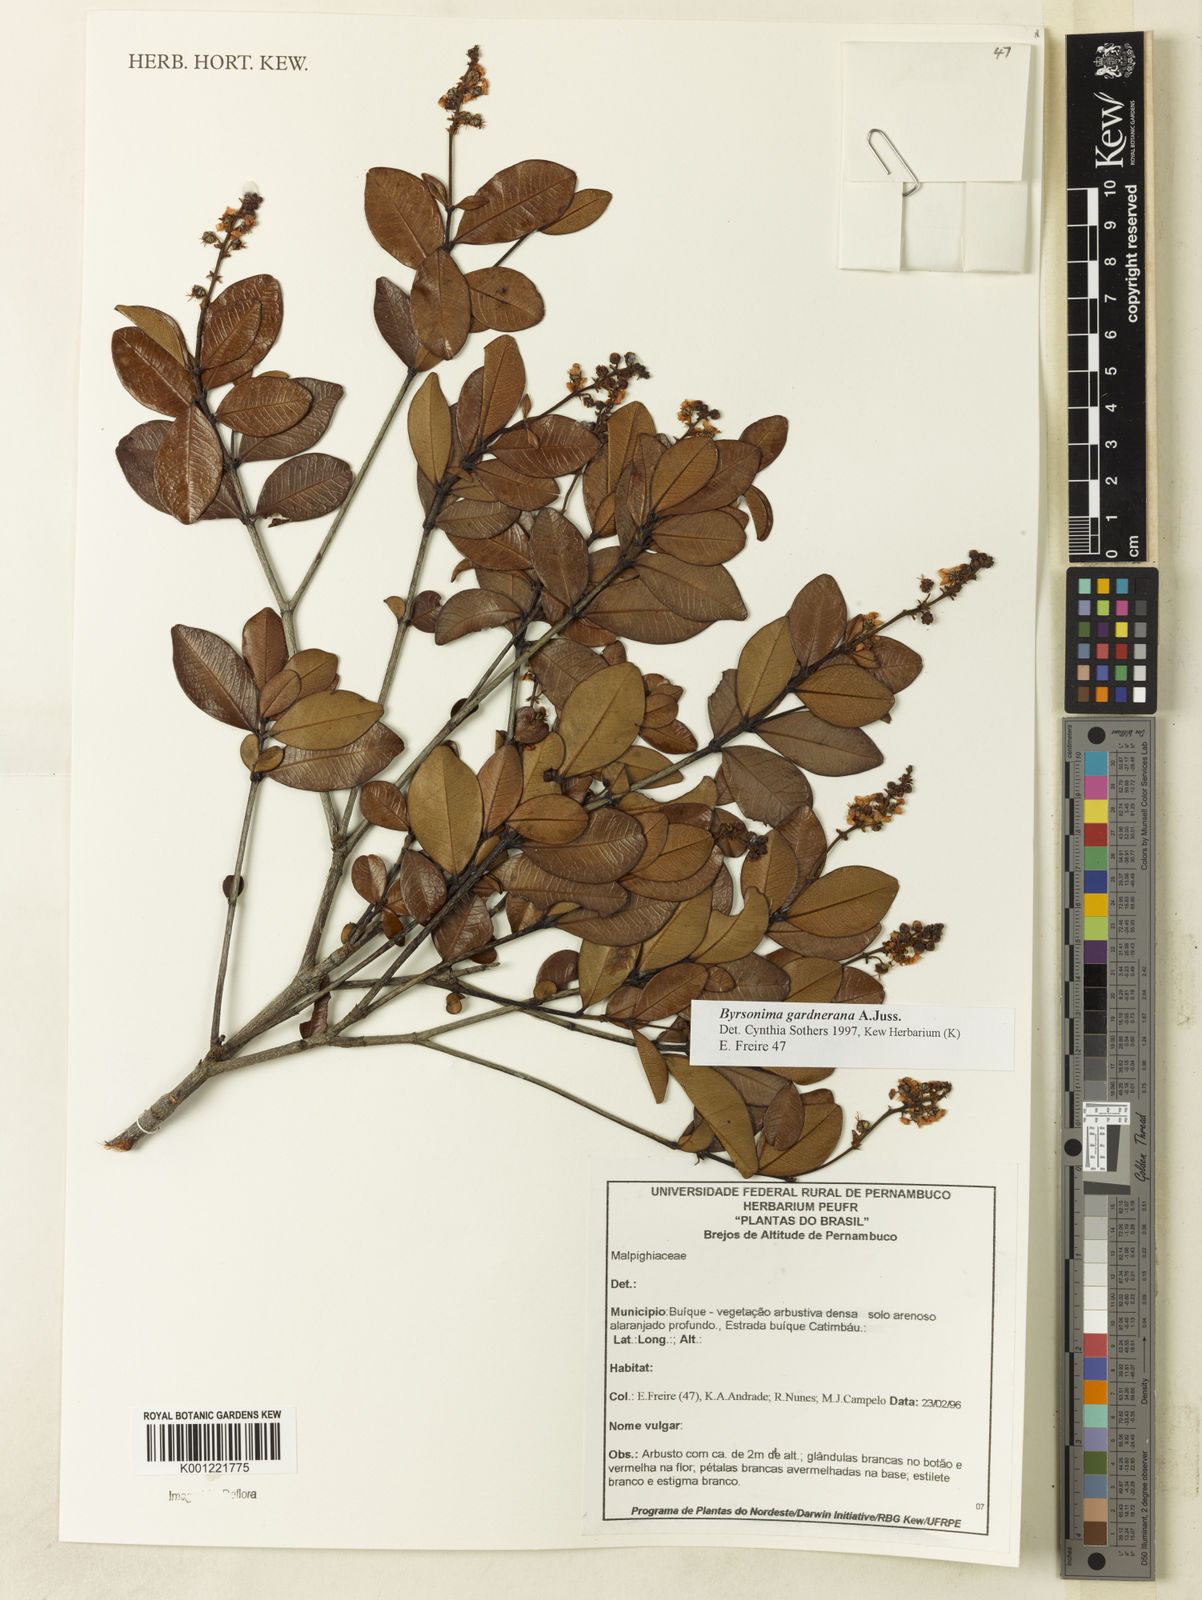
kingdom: Plantae
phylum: Tracheophyta
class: Magnoliopsida
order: Malpighiales
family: Malpighiaceae
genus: Byrsonima
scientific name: Byrsonima gardneriana
